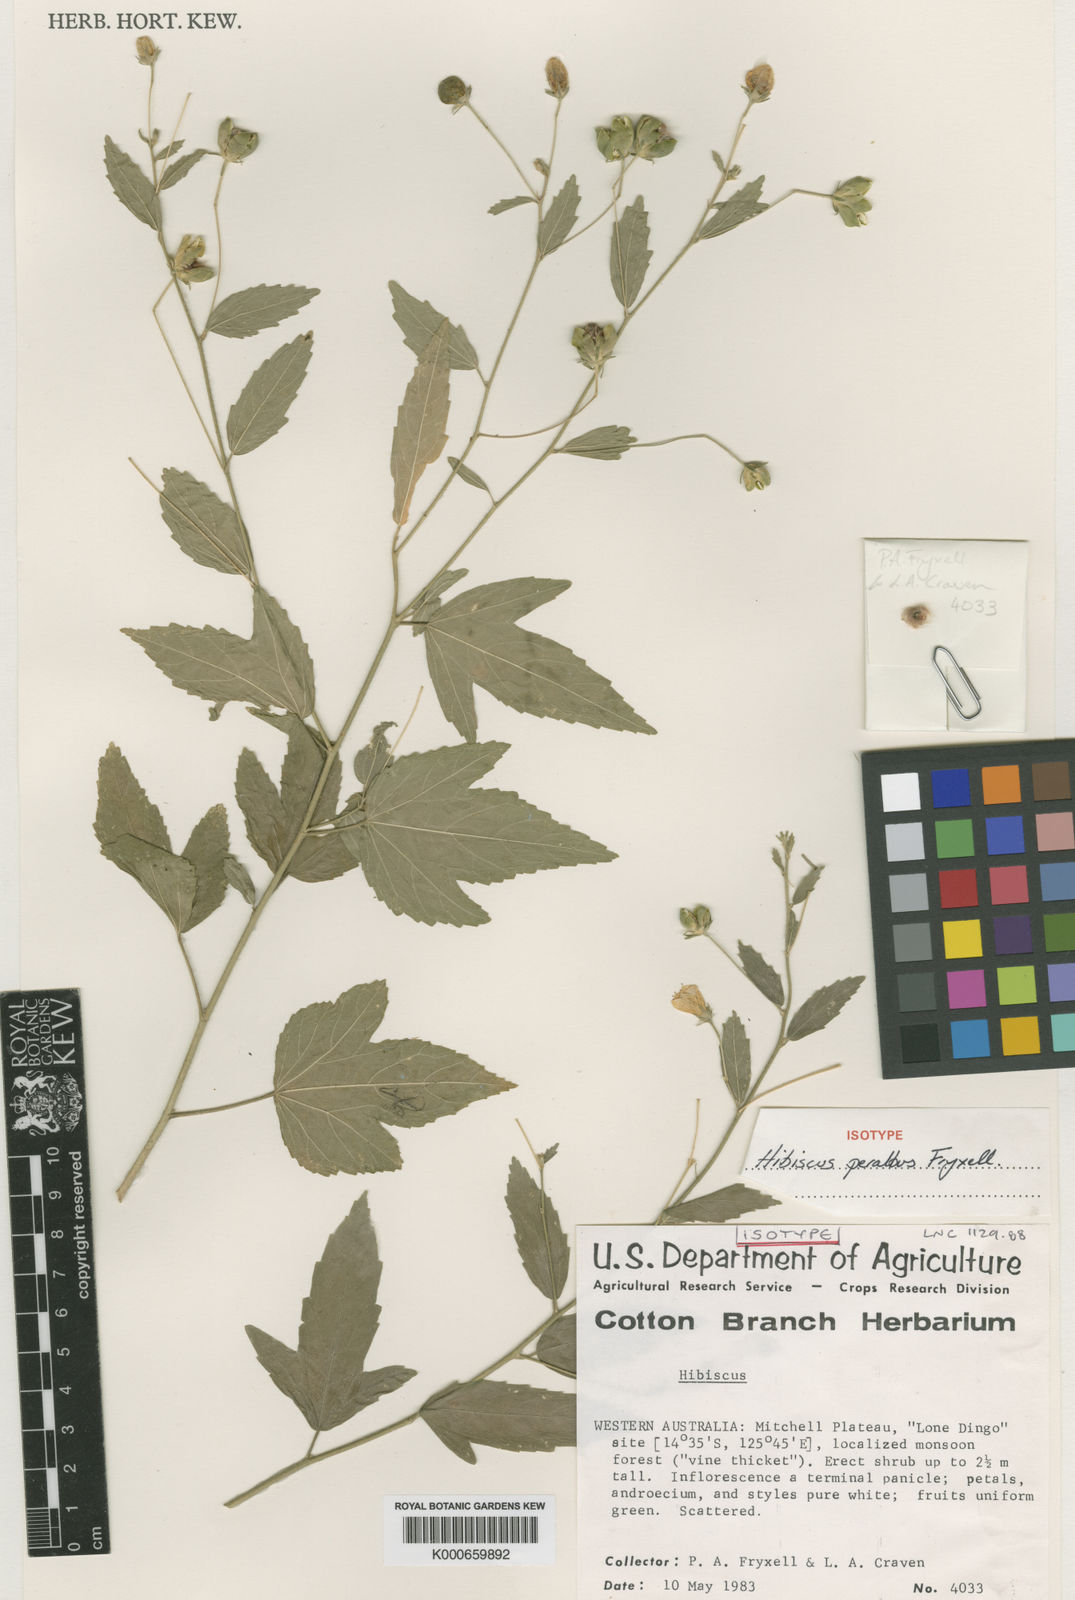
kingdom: Plantae
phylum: Tracheophyta
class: Magnoliopsida
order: Malvales
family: Malvaceae
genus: Hibiscus
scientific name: Hibiscus peralbus
